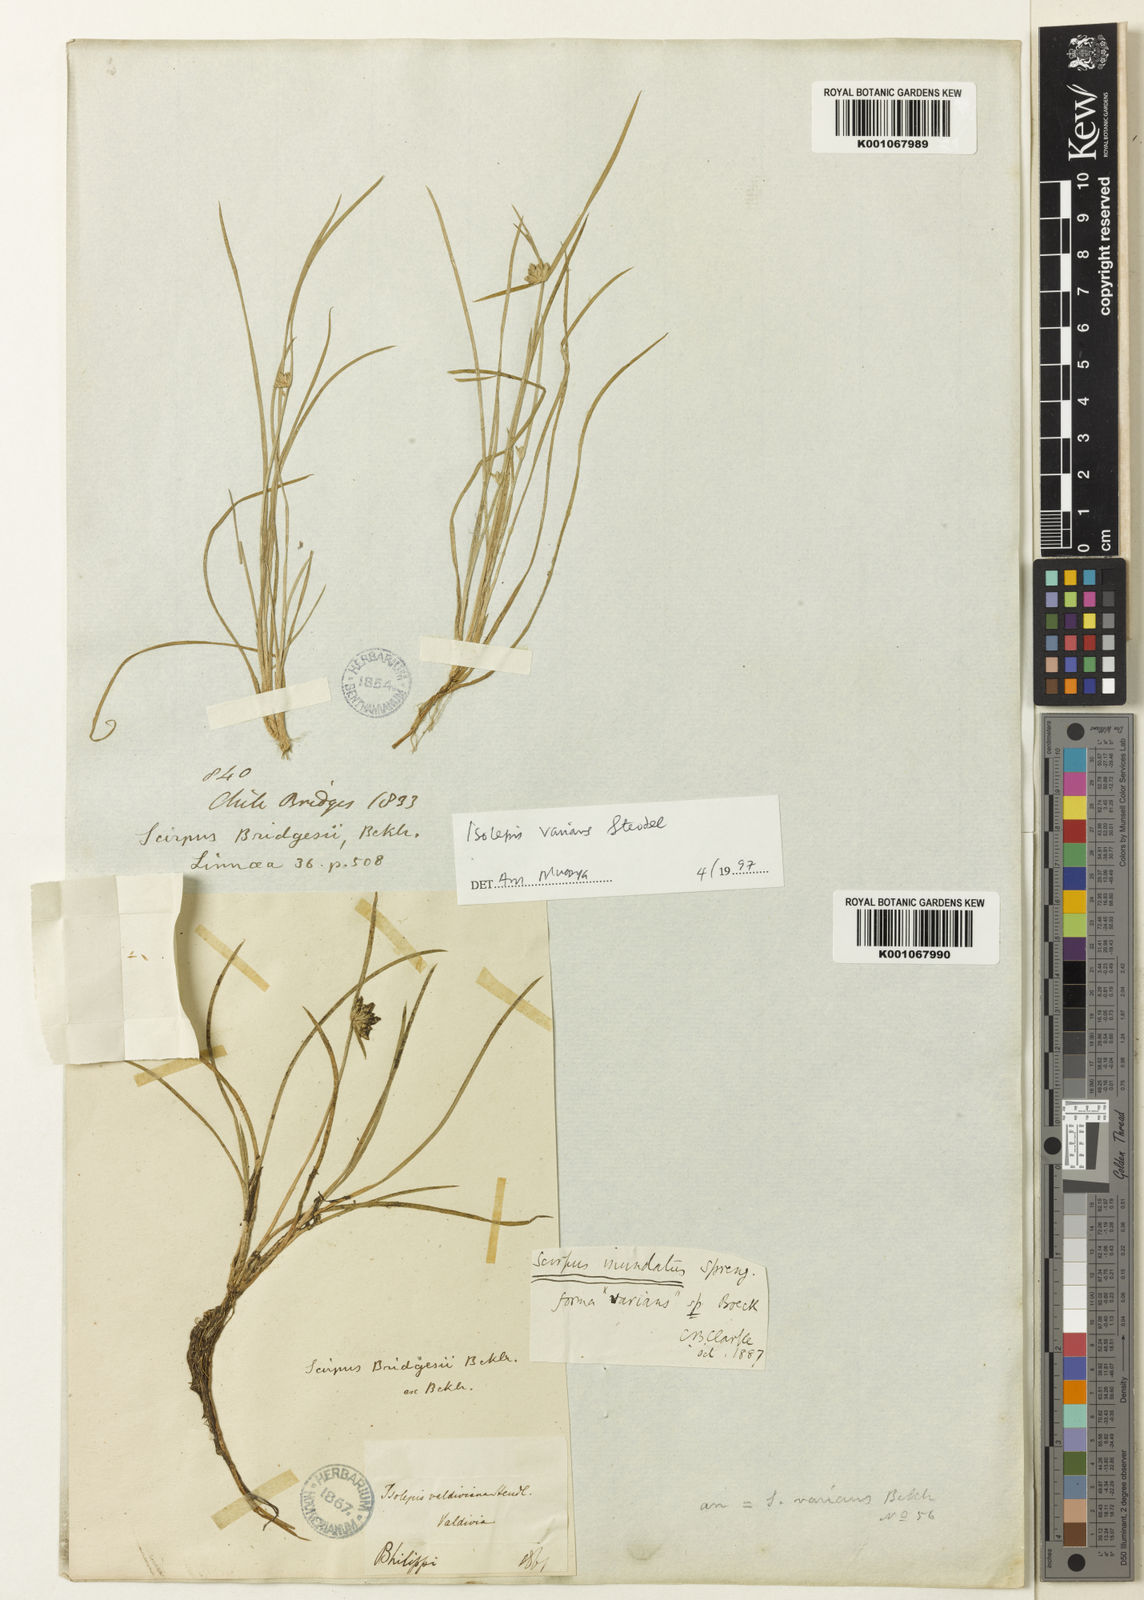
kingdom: Plantae
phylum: Tracheophyta
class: Liliopsida
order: Poales
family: Cyperaceae
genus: Isolepis
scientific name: Isolepis inundata
